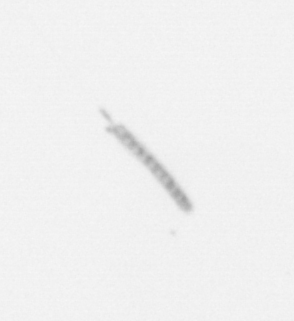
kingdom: Chromista
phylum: Ochrophyta
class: Bacillariophyceae
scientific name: Bacillariophyceae
